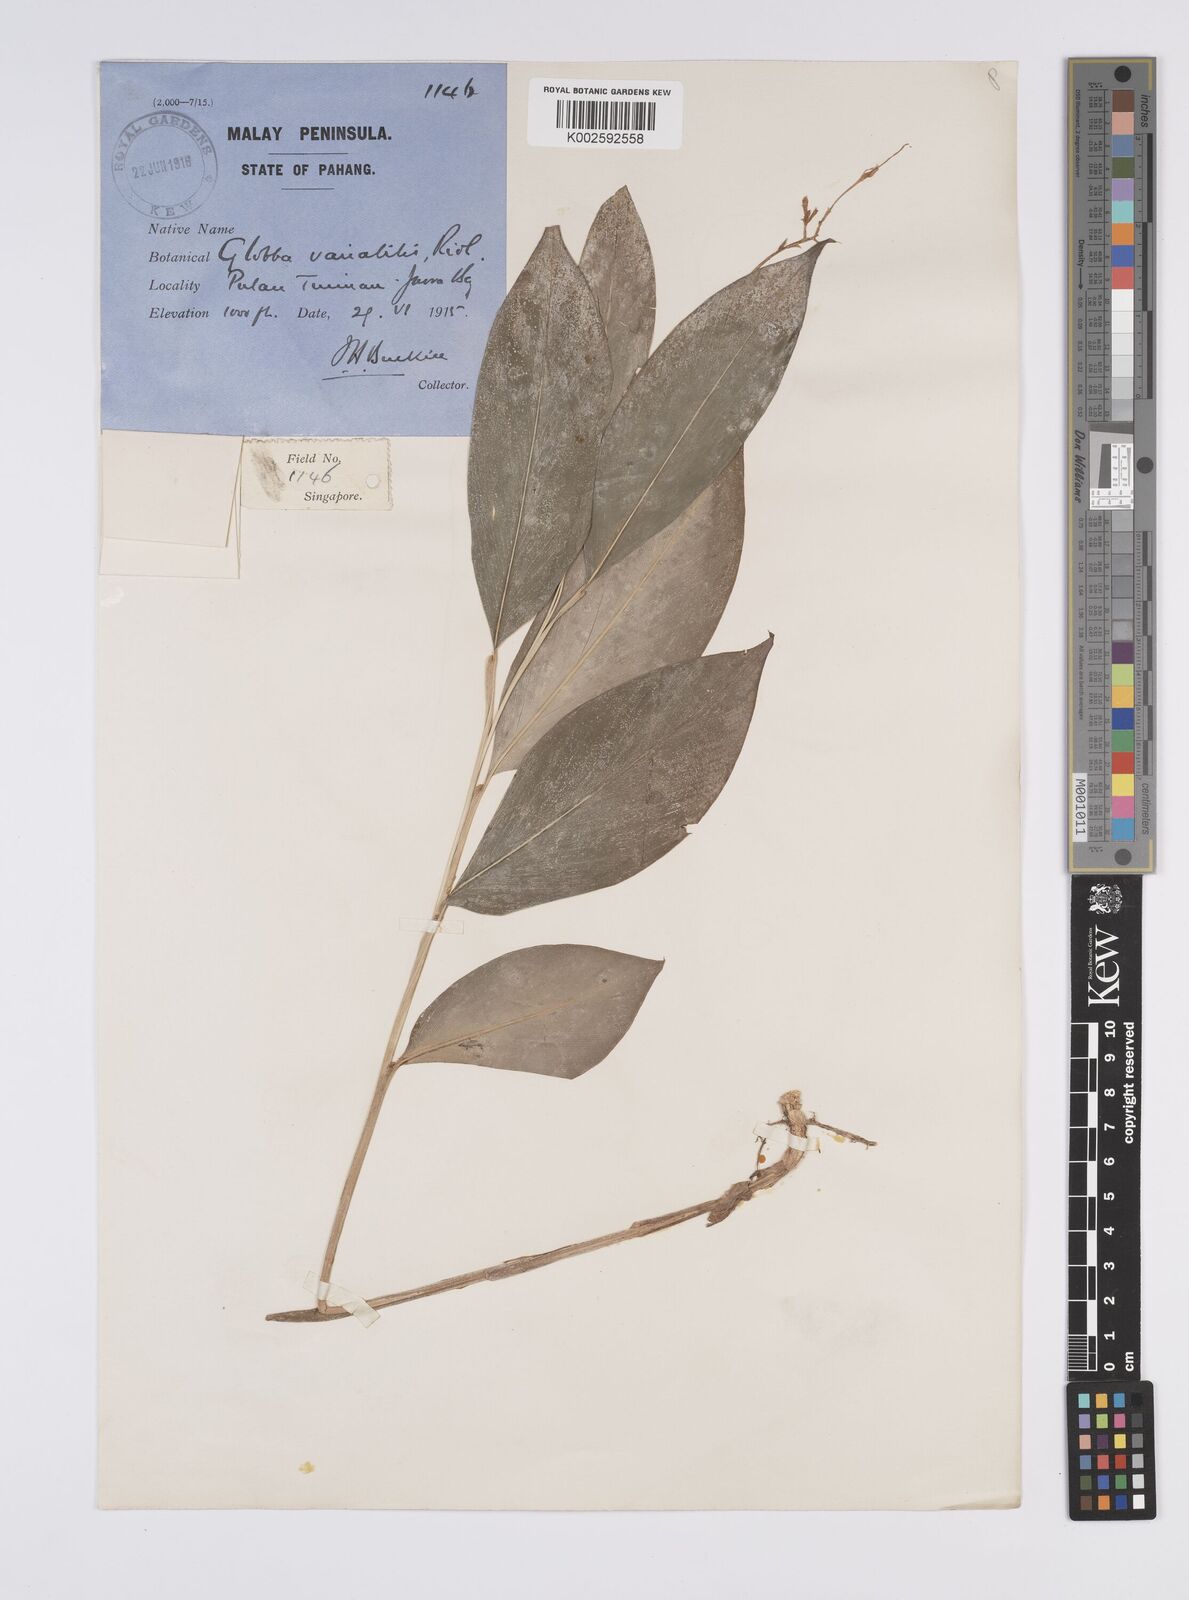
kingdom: Plantae
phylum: Tracheophyta
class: Liliopsida
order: Zingiberales
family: Zingiberaceae
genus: Globba
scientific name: Globba variabilis
